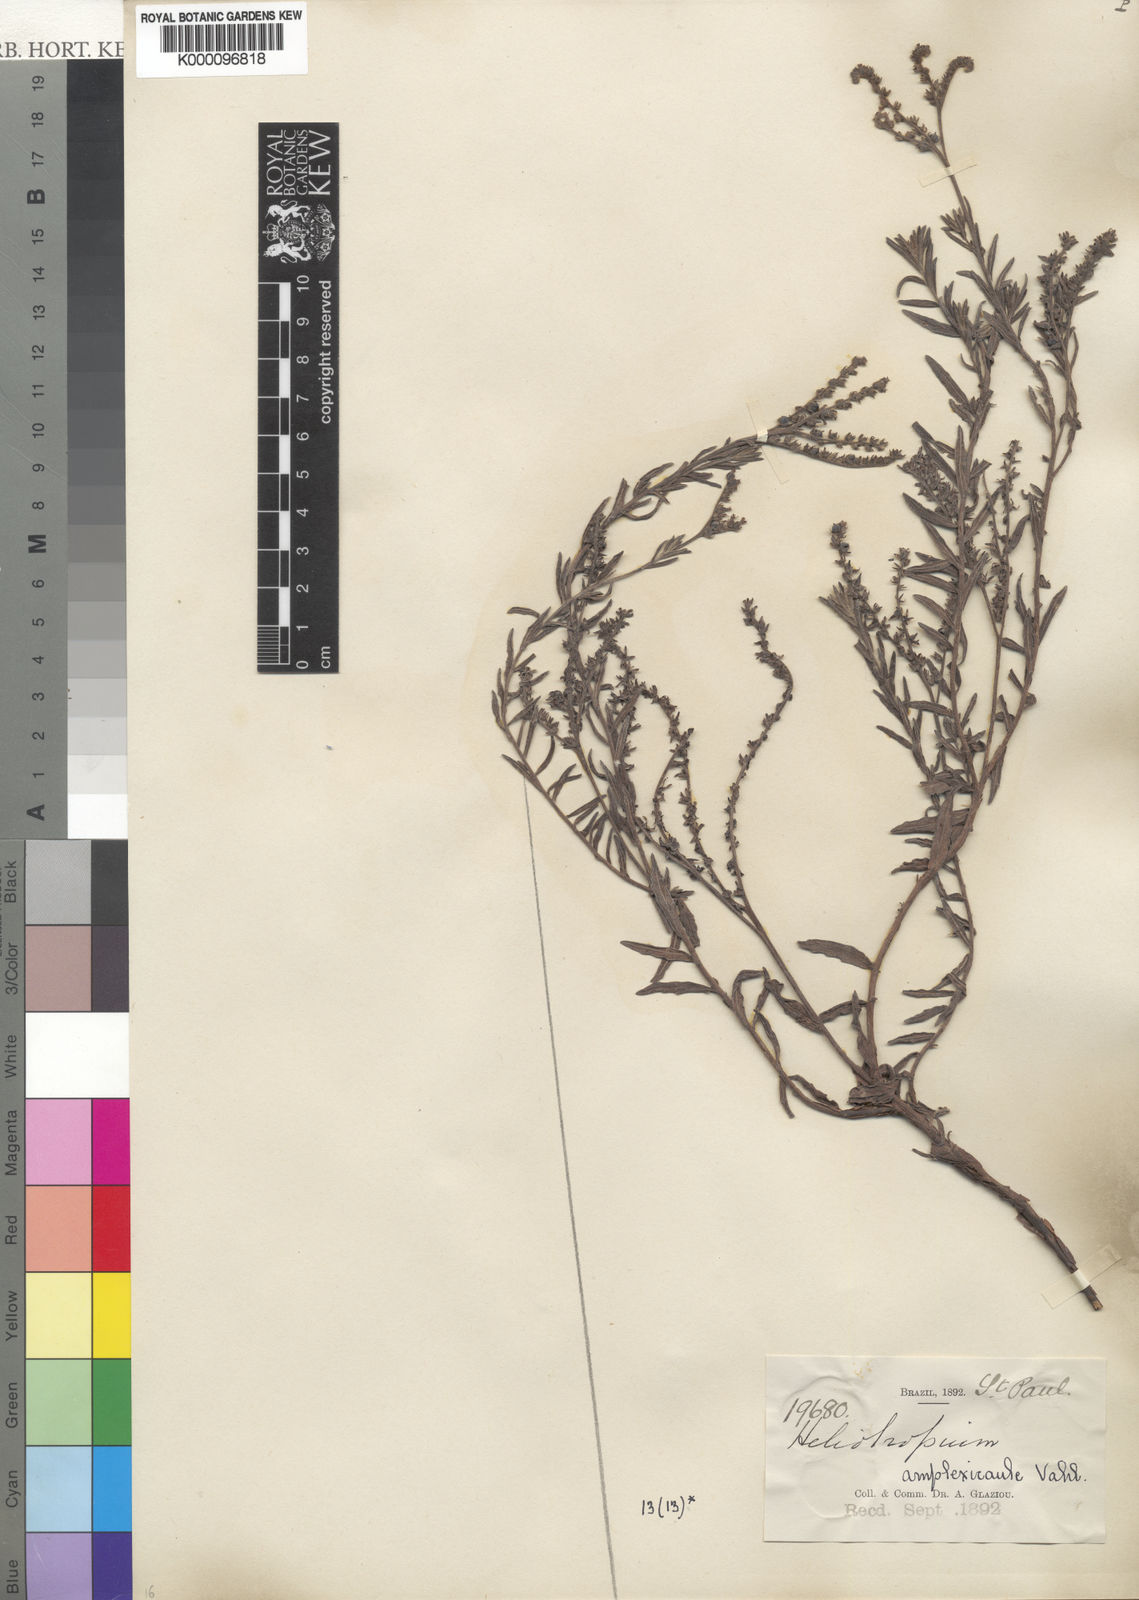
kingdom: Plantae
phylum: Tracheophyta
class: Magnoliopsida
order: Boraginales
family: Heliotropiaceae
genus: Heliotropium
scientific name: Heliotropium amplexicaule
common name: Clasping heliotrope
